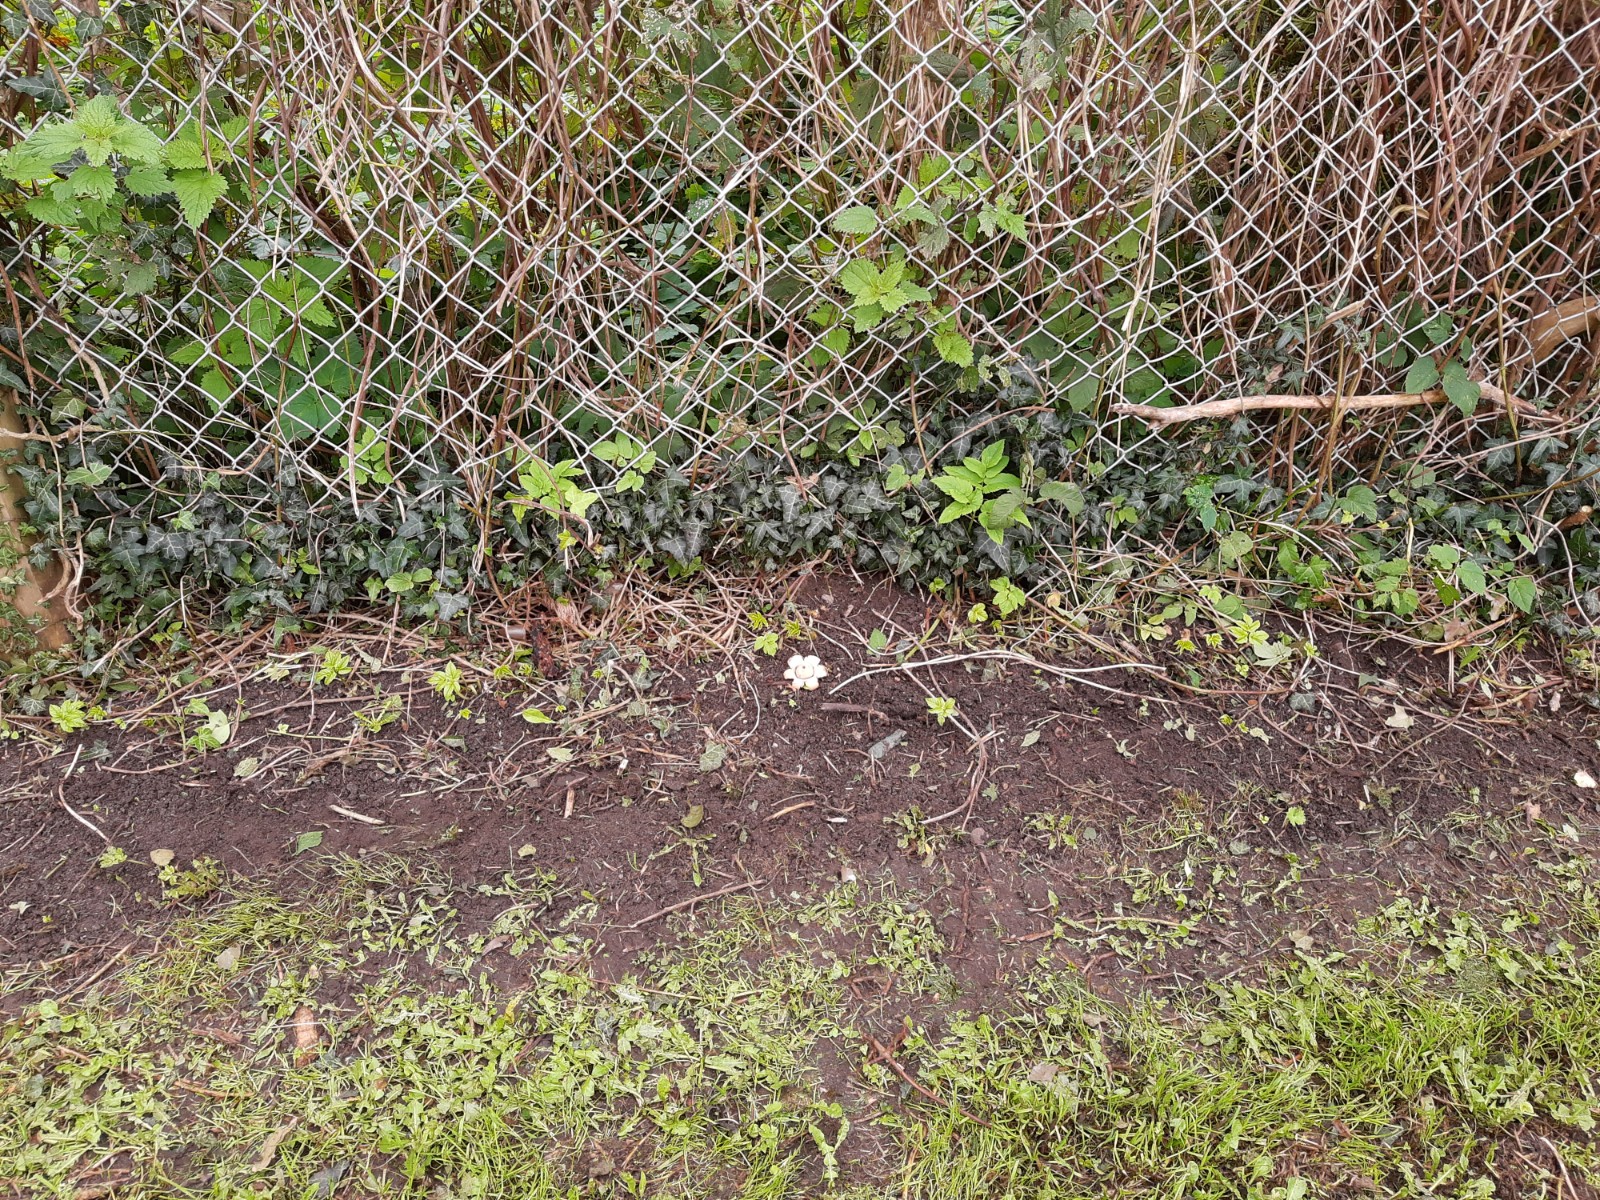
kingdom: Fungi
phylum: Basidiomycota
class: Agaricomycetes
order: Geastrales
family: Geastraceae
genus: Geastrum
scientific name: Geastrum michelianum
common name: kødet stjernebold
